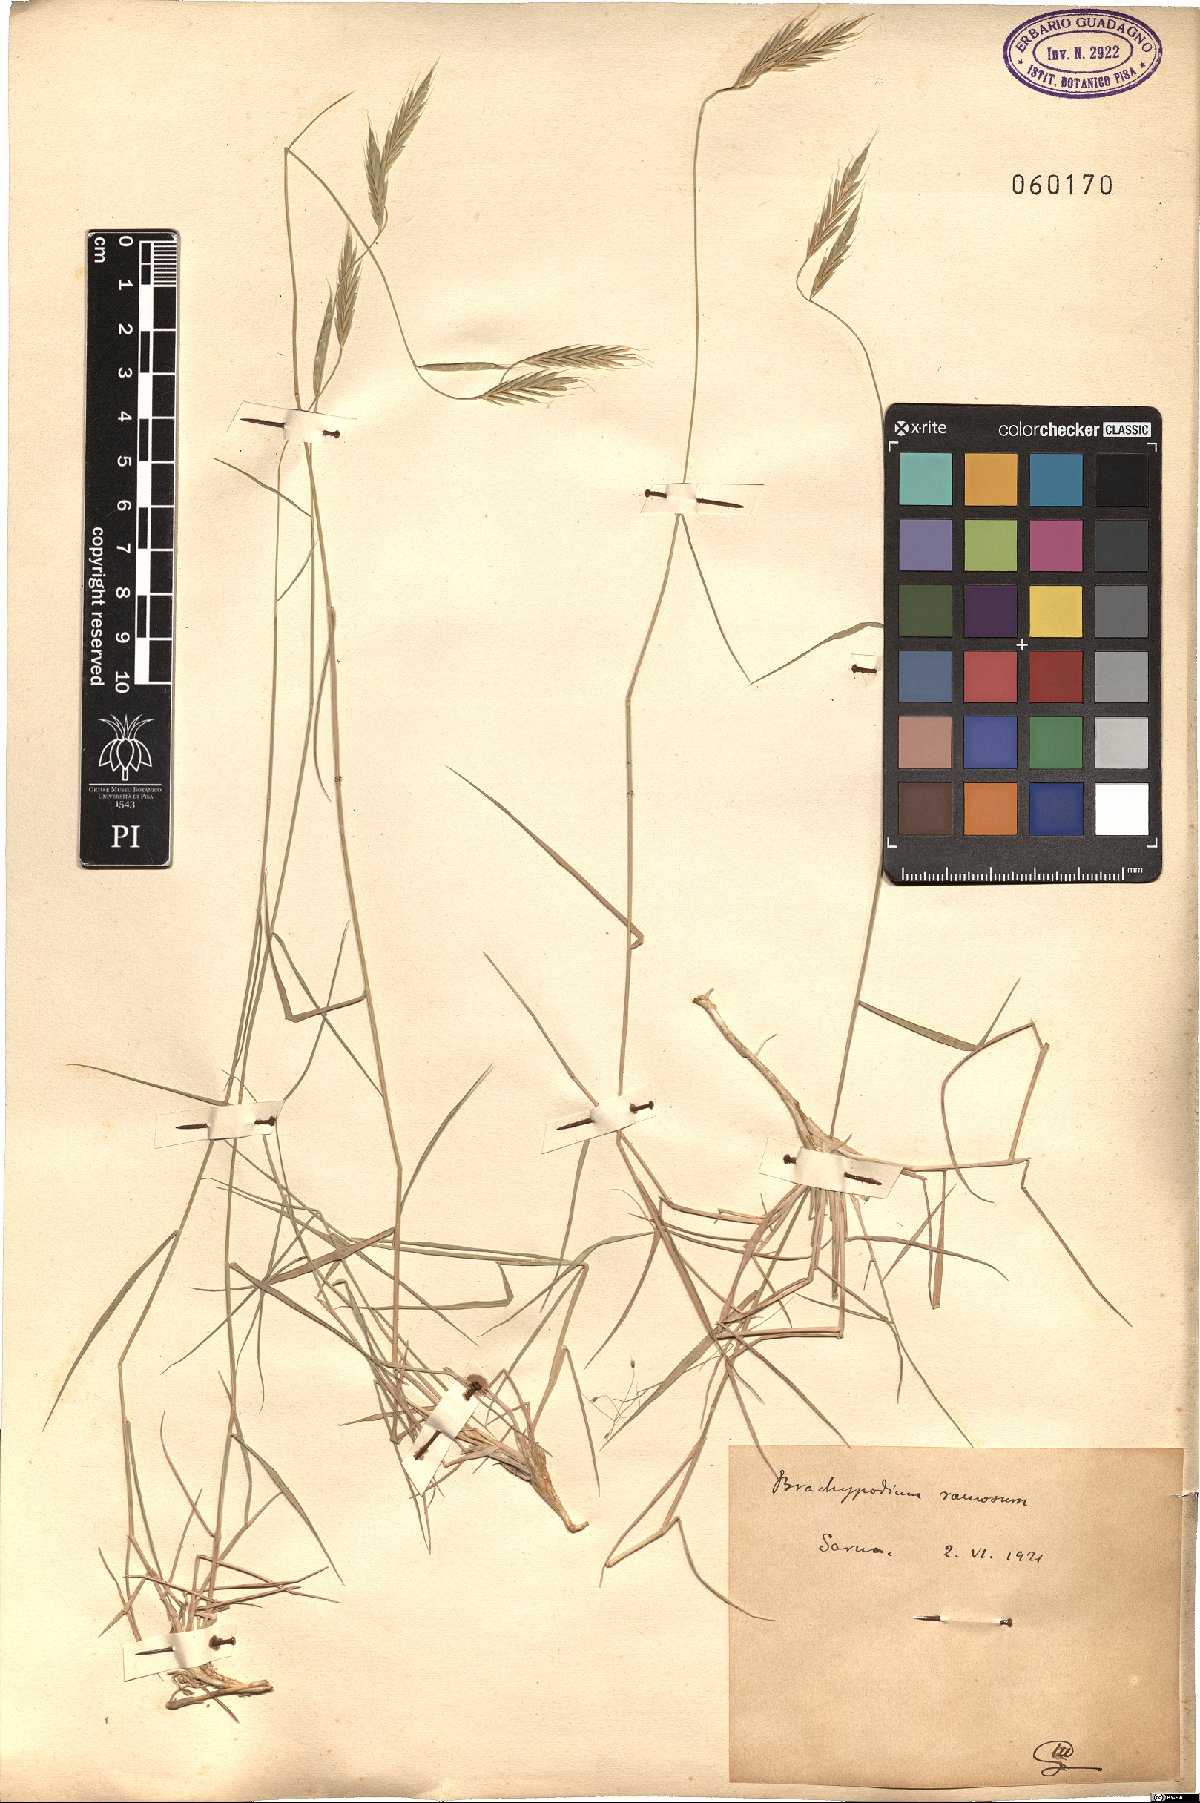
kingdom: Plantae
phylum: Tracheophyta
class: Liliopsida
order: Poales
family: Poaceae
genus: Brachypodium
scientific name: Brachypodium retusum
